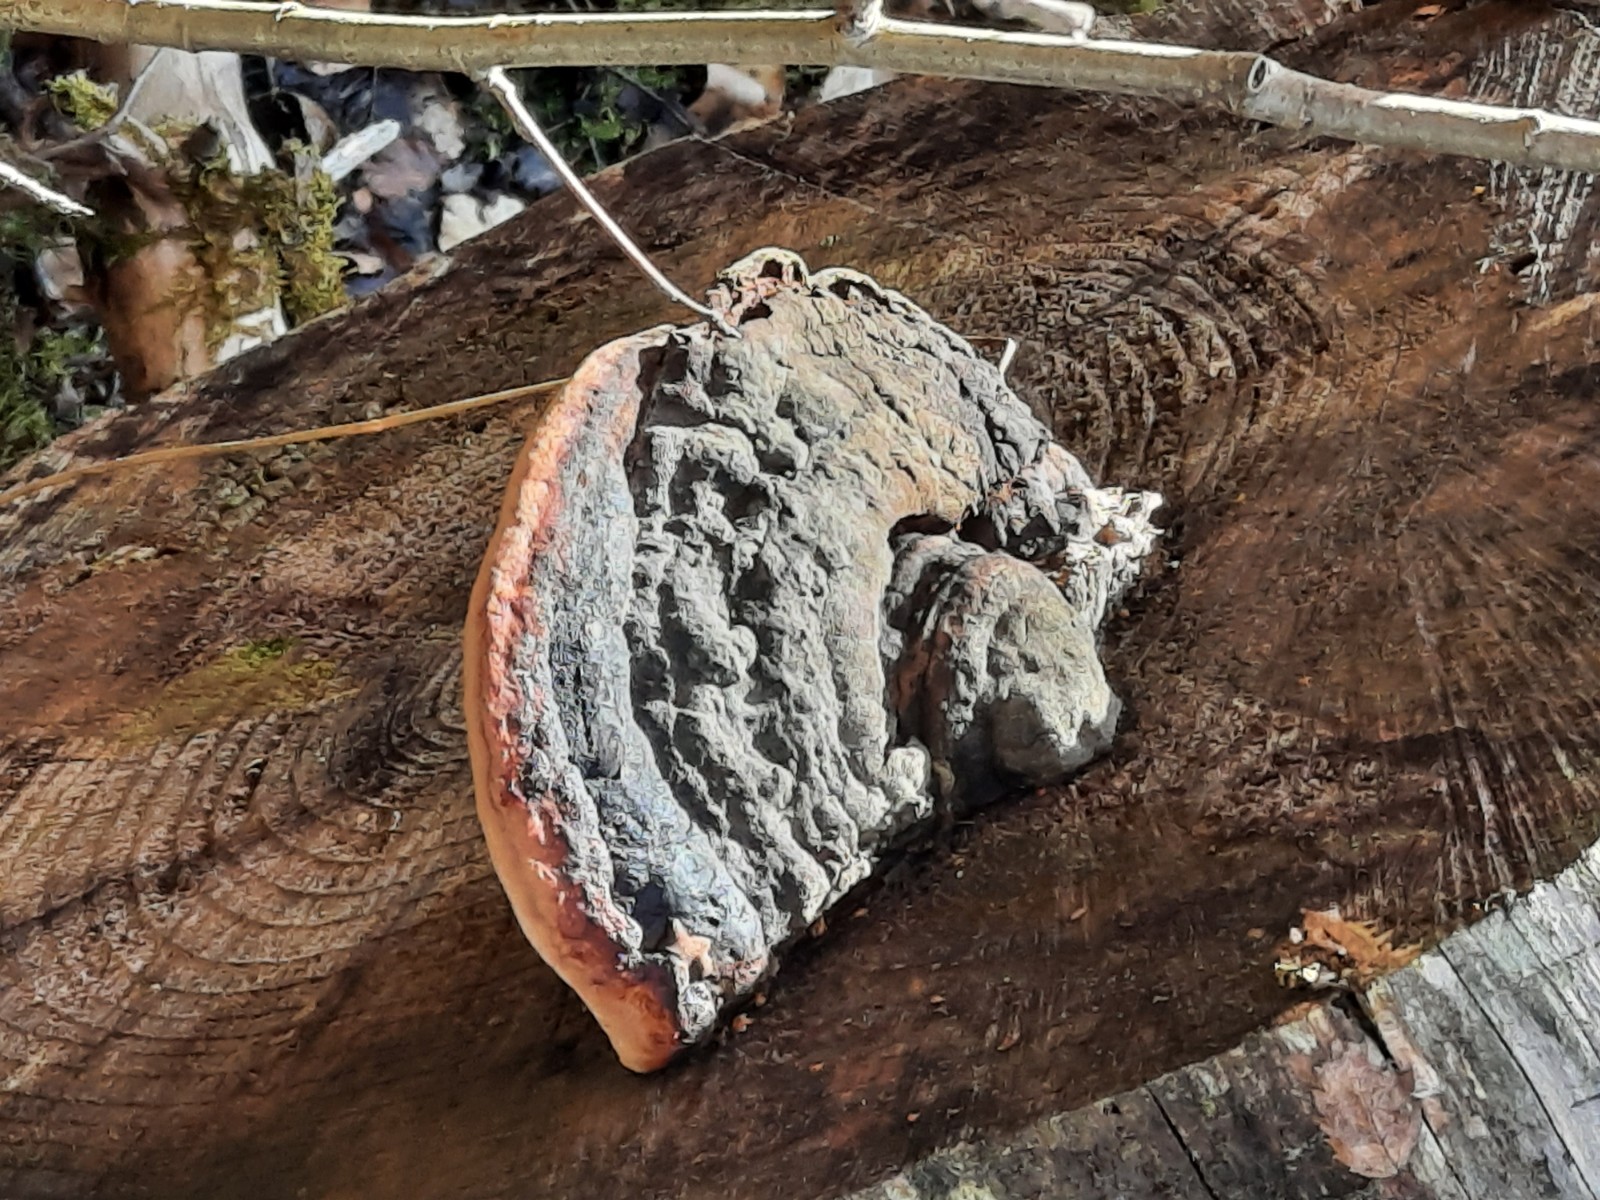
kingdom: Fungi
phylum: Basidiomycota
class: Agaricomycetes
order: Polyporales
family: Fomitopsidaceae
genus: Fomitopsis
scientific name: Fomitopsis pinicola
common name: randbæltet hovporesvamp
